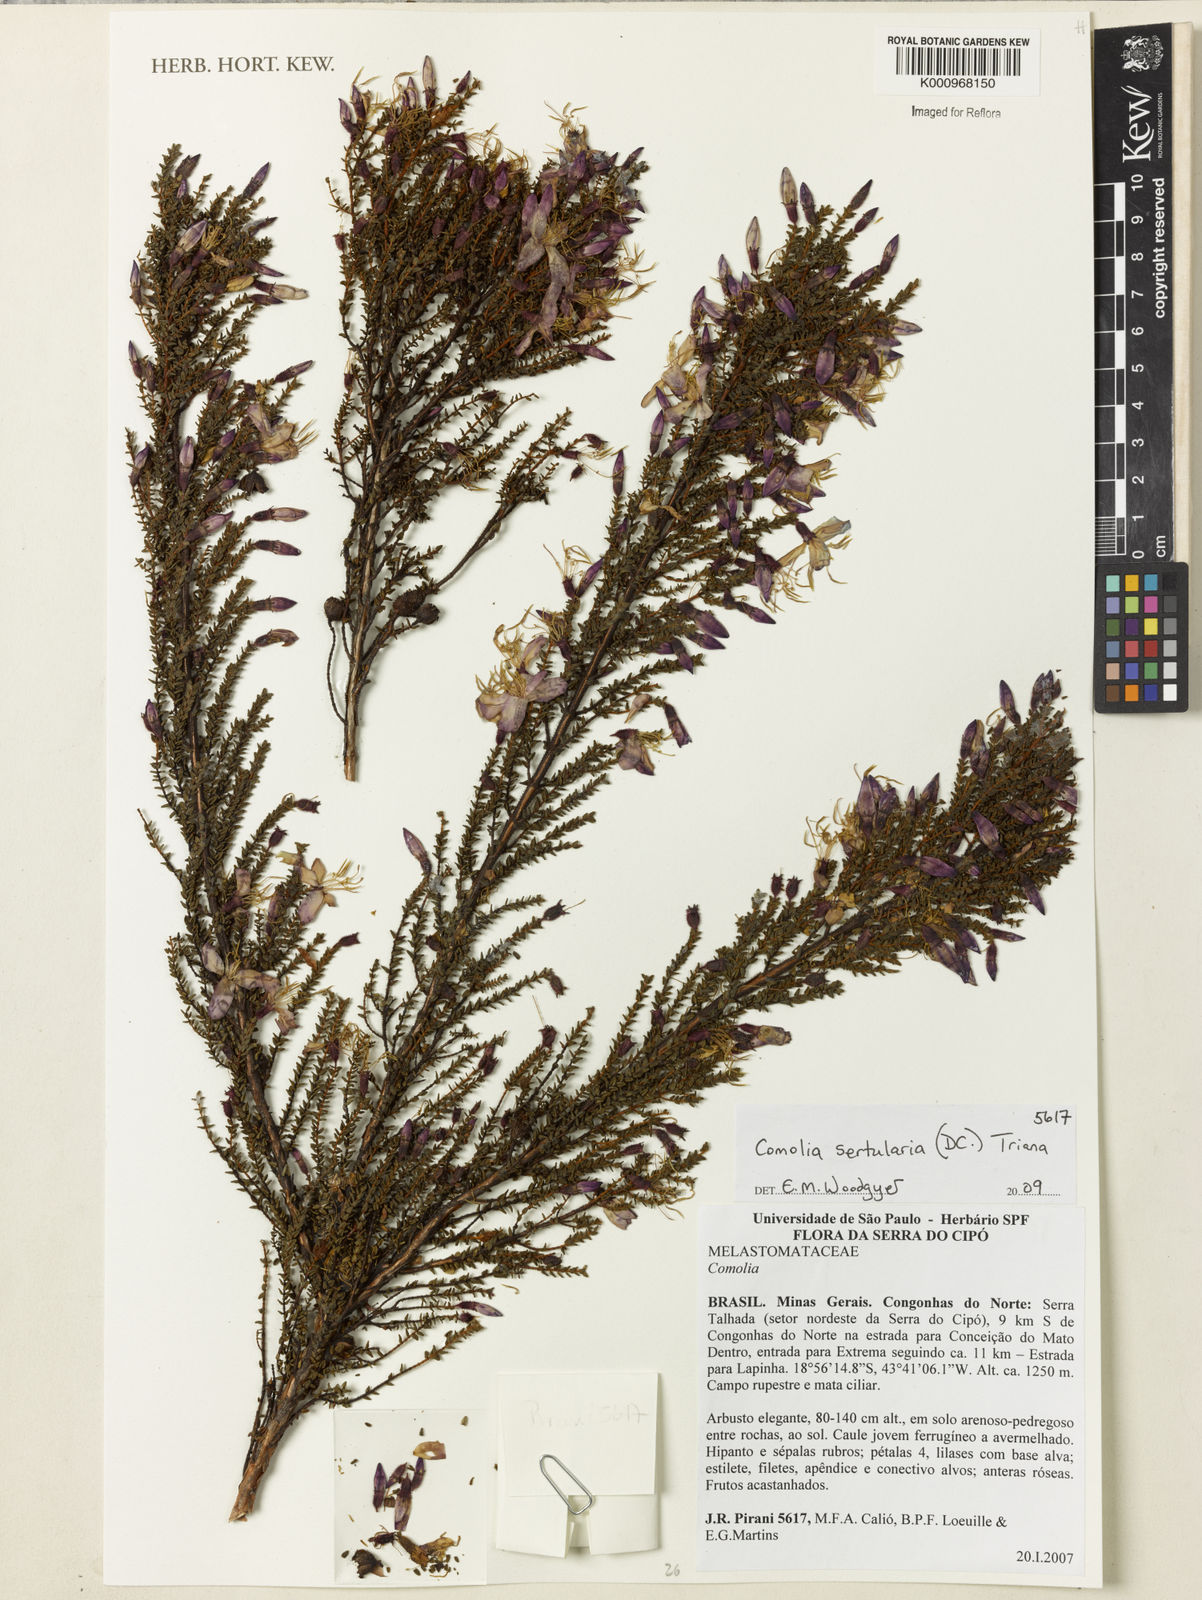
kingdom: Plantae
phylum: Tracheophyta
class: Magnoliopsida
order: Myrtales
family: Melastomataceae
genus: Fritzschia
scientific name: Fritzschia sertularia
